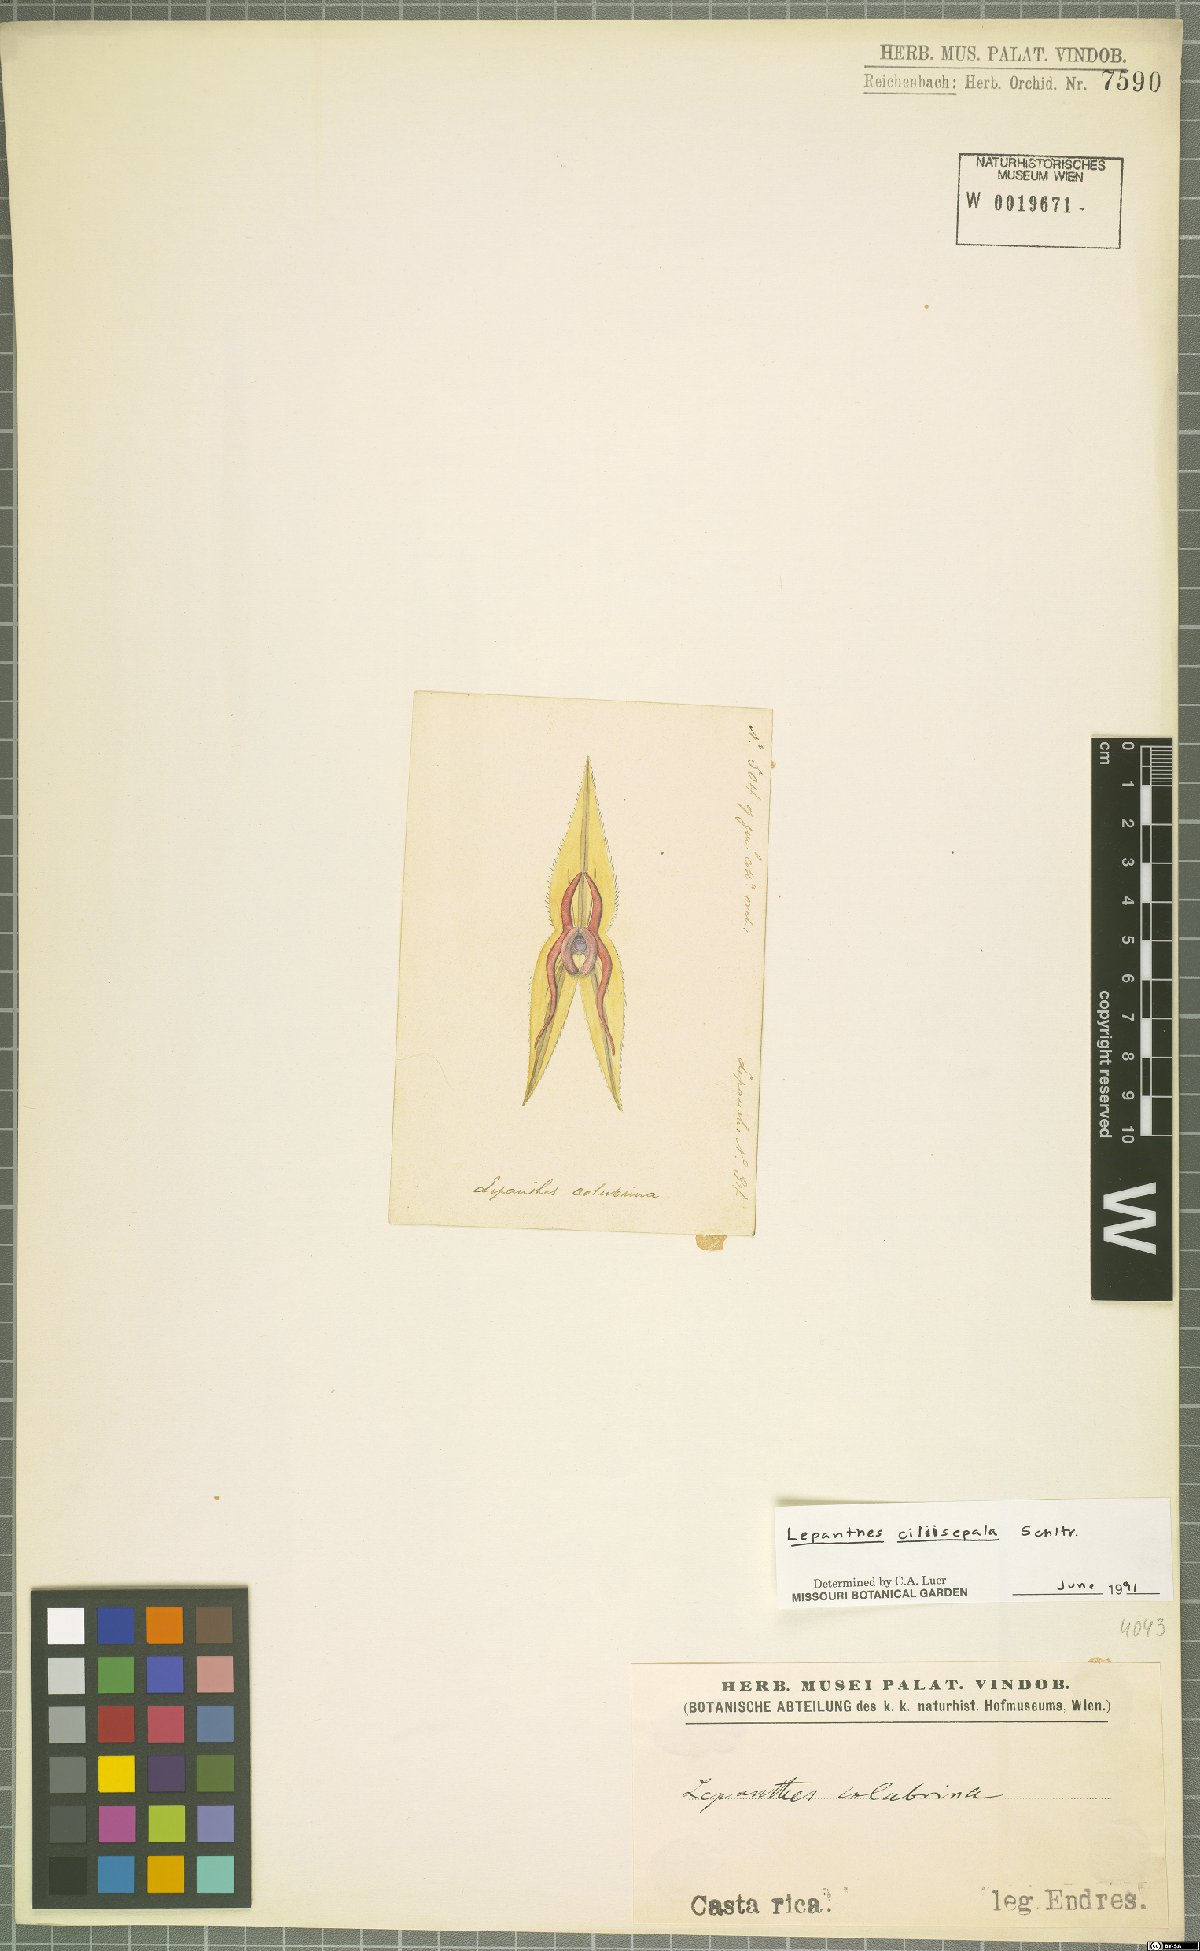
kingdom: Plantae
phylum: Tracheophyta
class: Liliopsida
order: Asparagales
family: Orchidaceae
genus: Lepanthes
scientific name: Lepanthes ciliisepala
